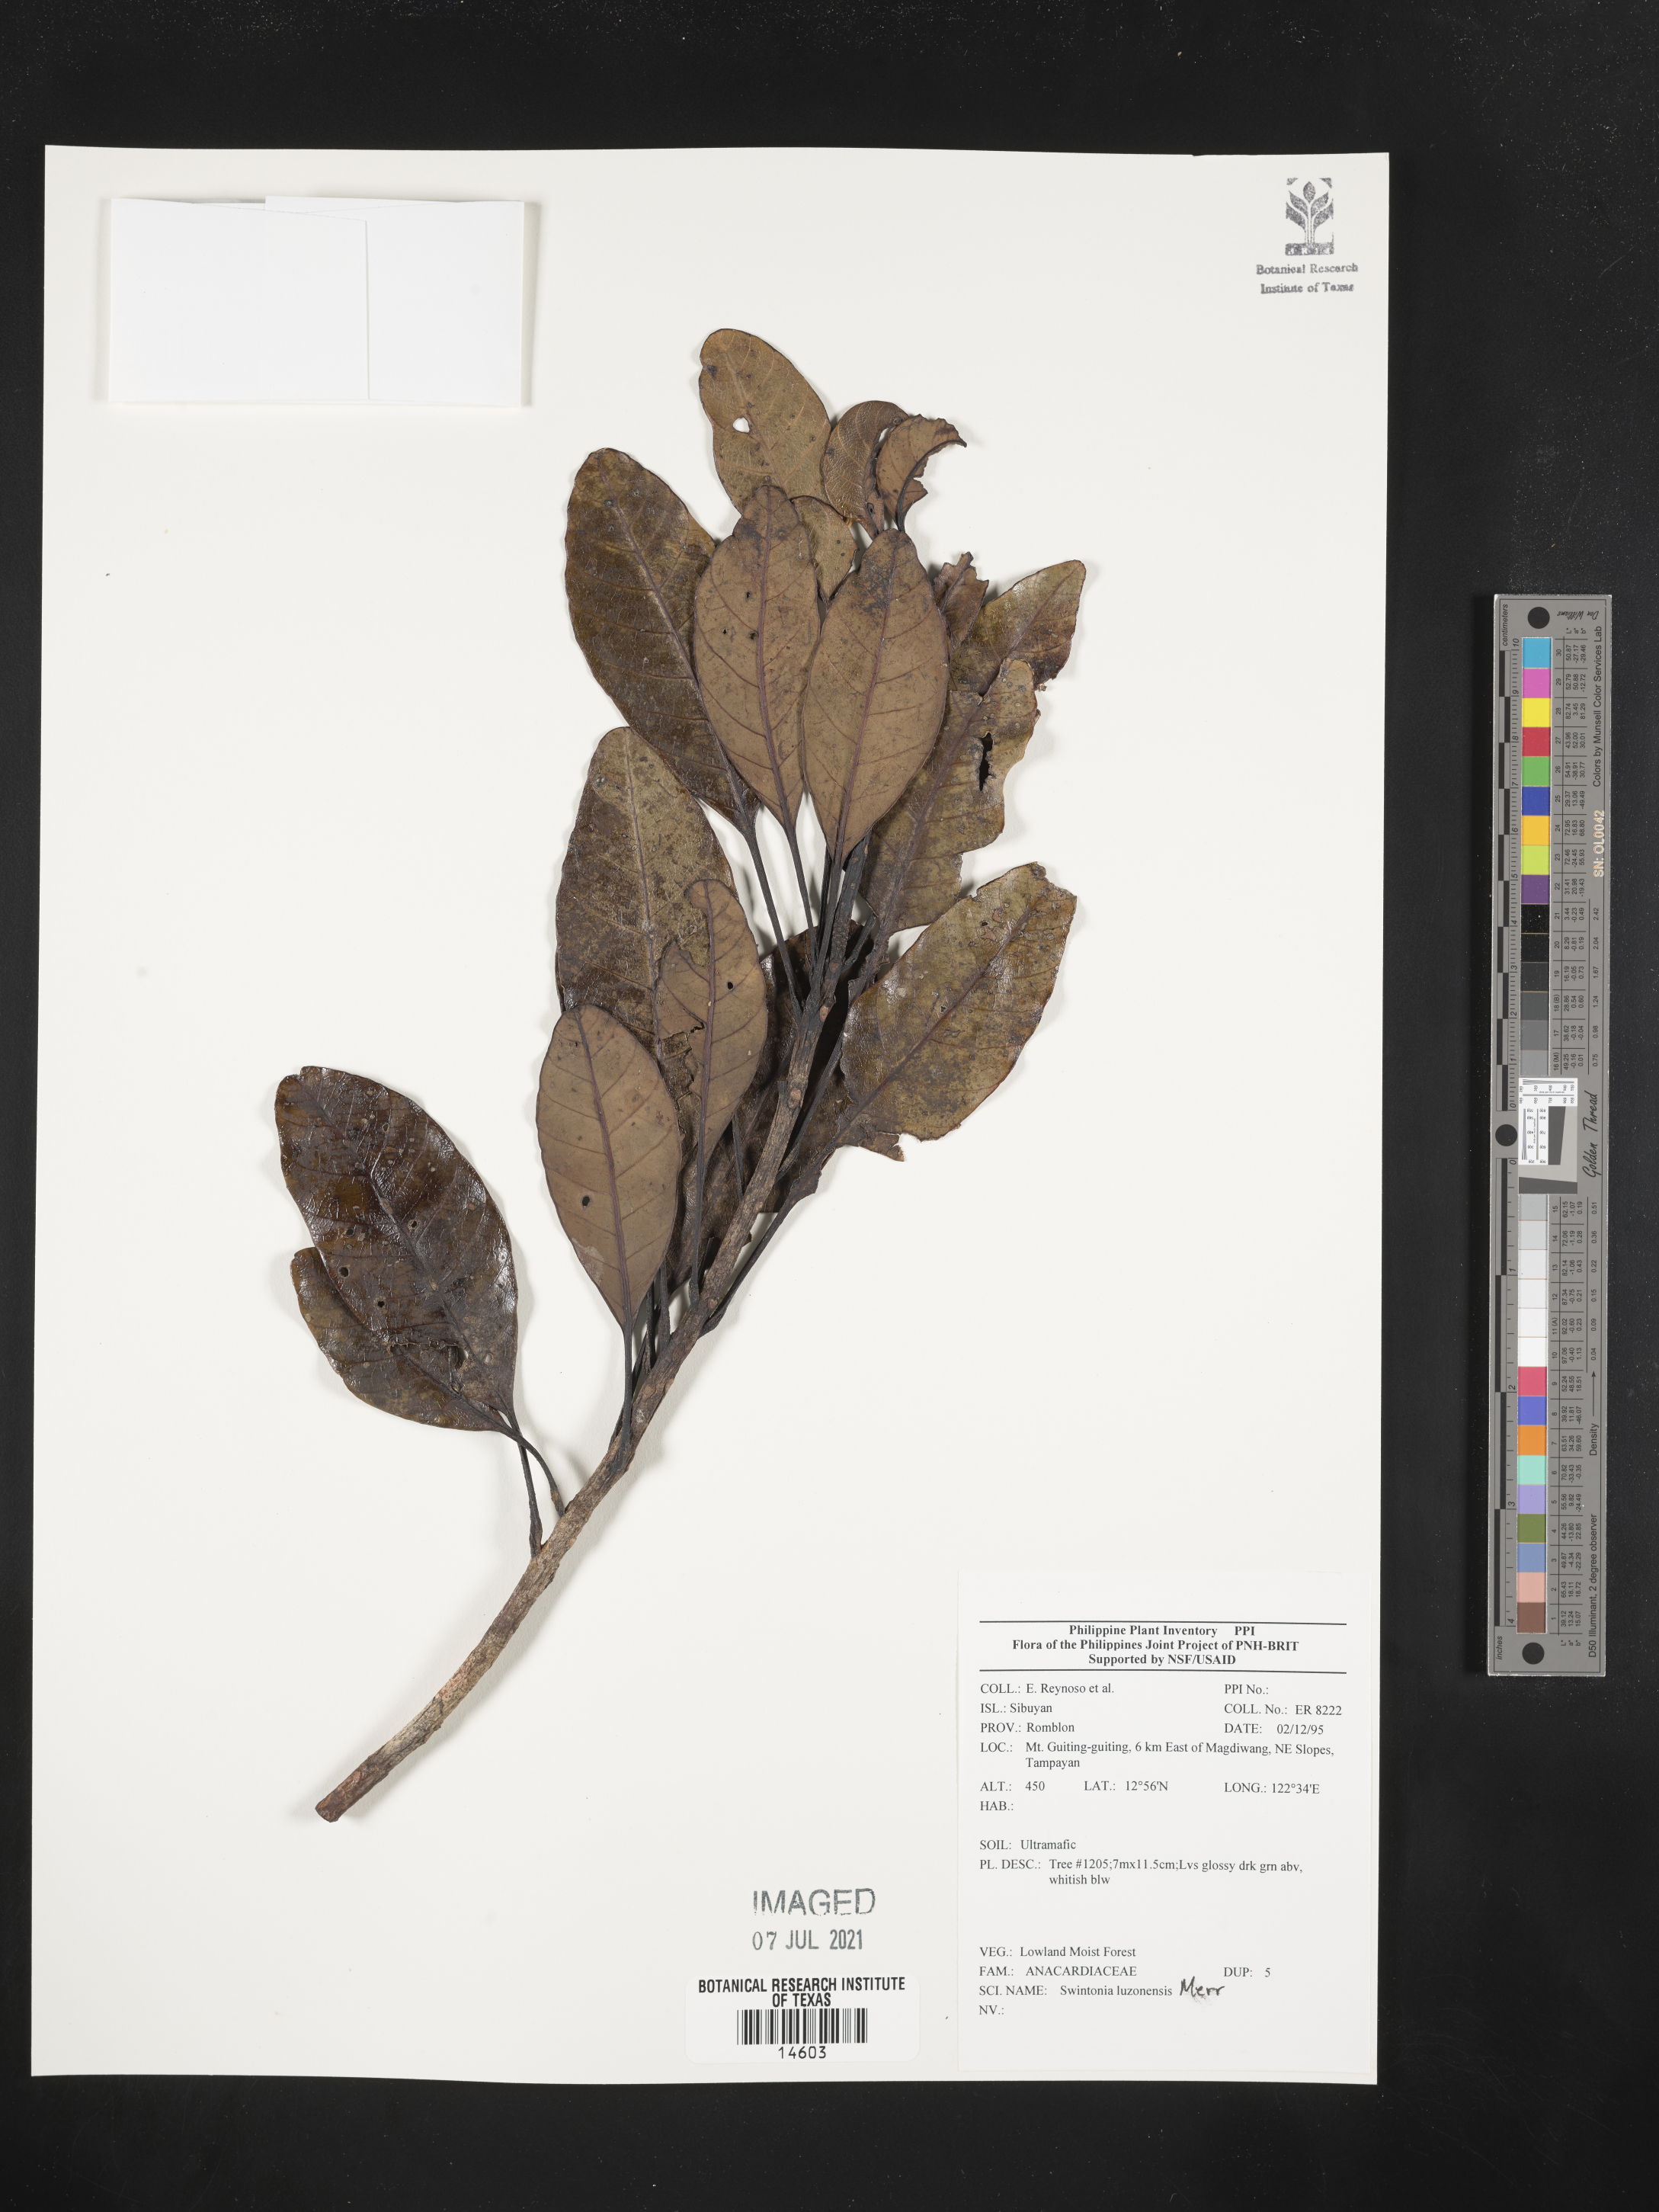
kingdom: Plantae
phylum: Tracheophyta
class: Magnoliopsida
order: Sapindales
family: Anacardiaceae
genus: Swintonia
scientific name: Swintonia acuta
